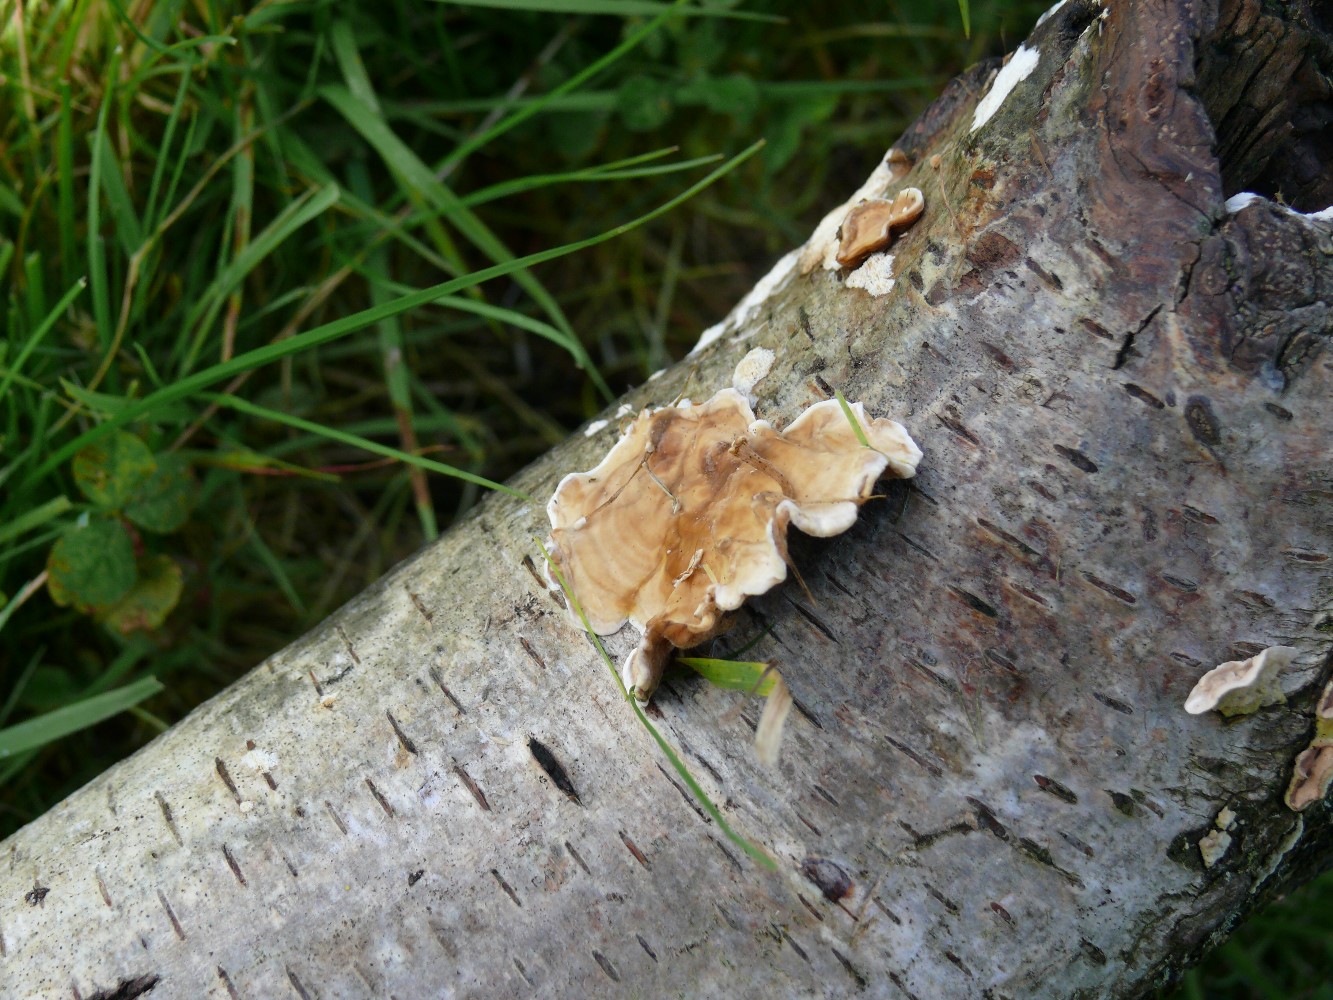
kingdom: Fungi
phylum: Basidiomycota
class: Agaricomycetes
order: Russulales
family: Stereaceae
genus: Stereum
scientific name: Stereum hirsutum
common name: håret lædersvamp
